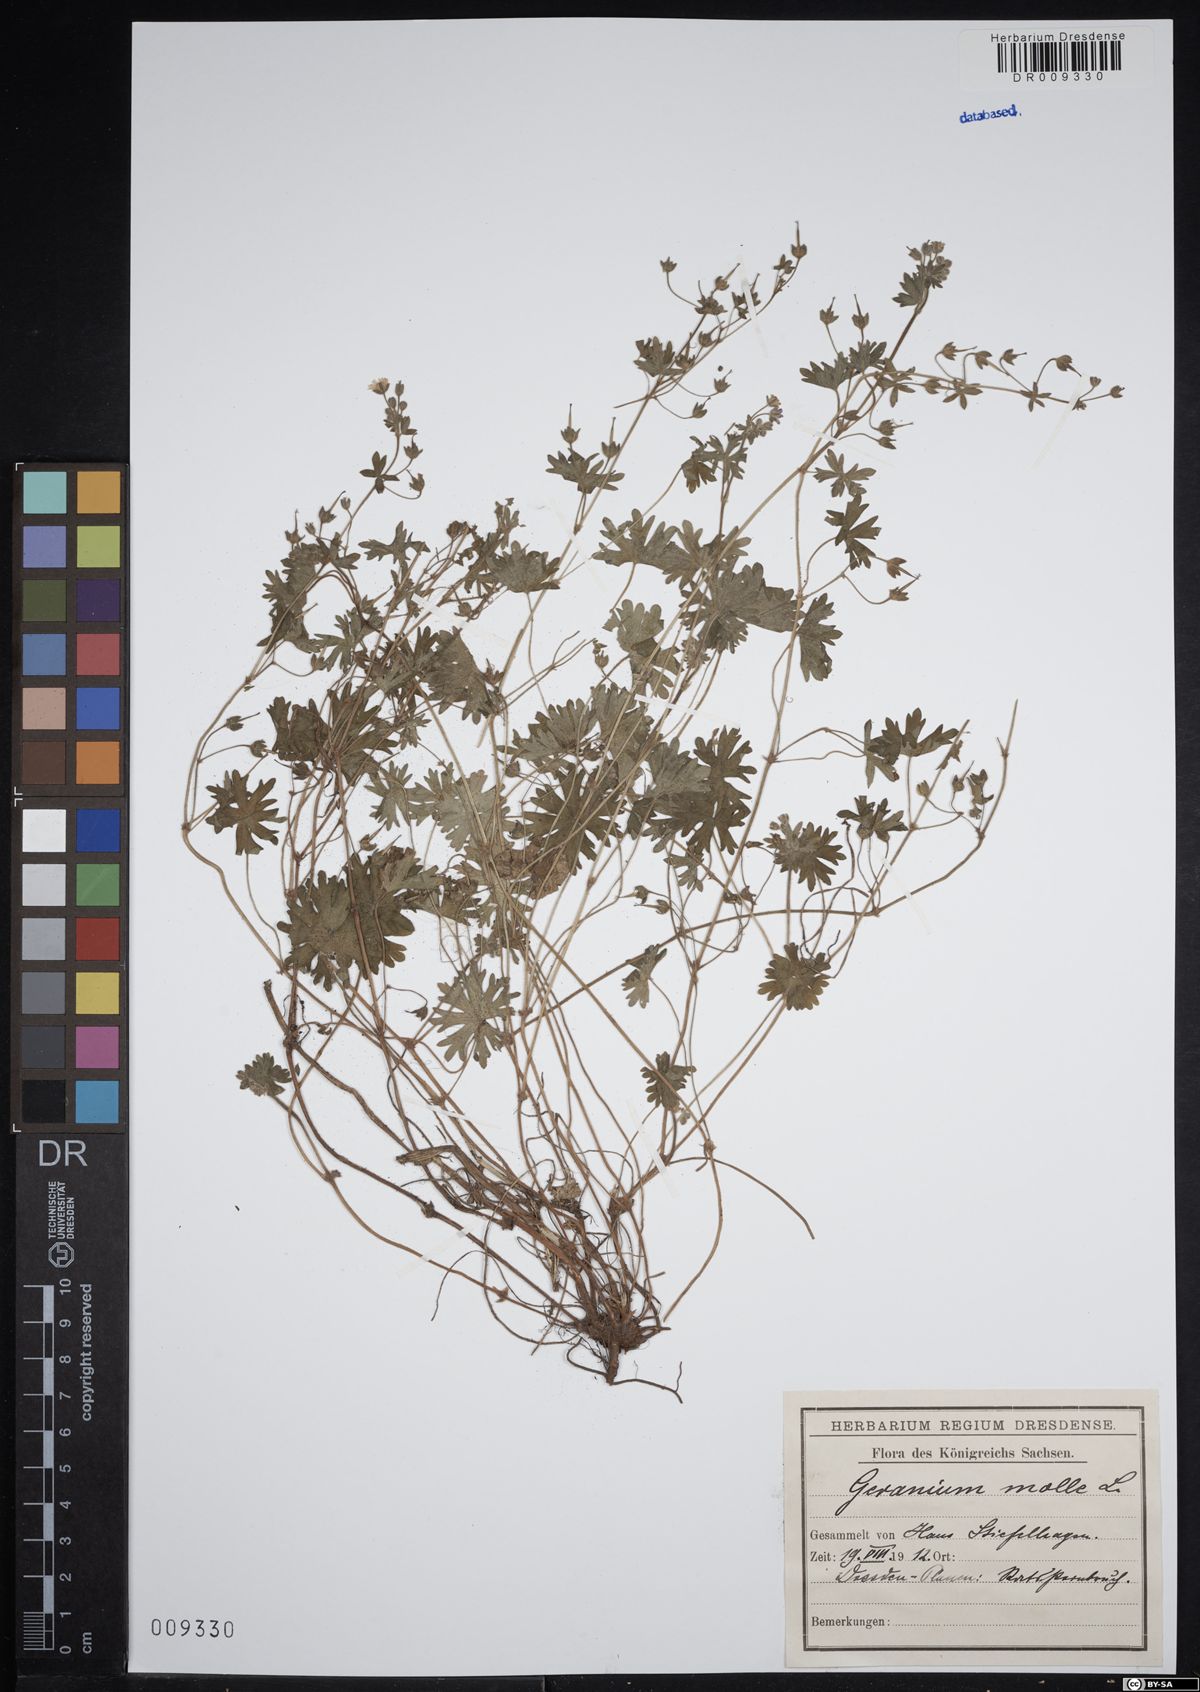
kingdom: Plantae
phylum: Tracheophyta
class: Magnoliopsida
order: Geraniales
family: Geraniaceae
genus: Geranium
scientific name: Geranium molle
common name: Dove's-foot crane's-bill
